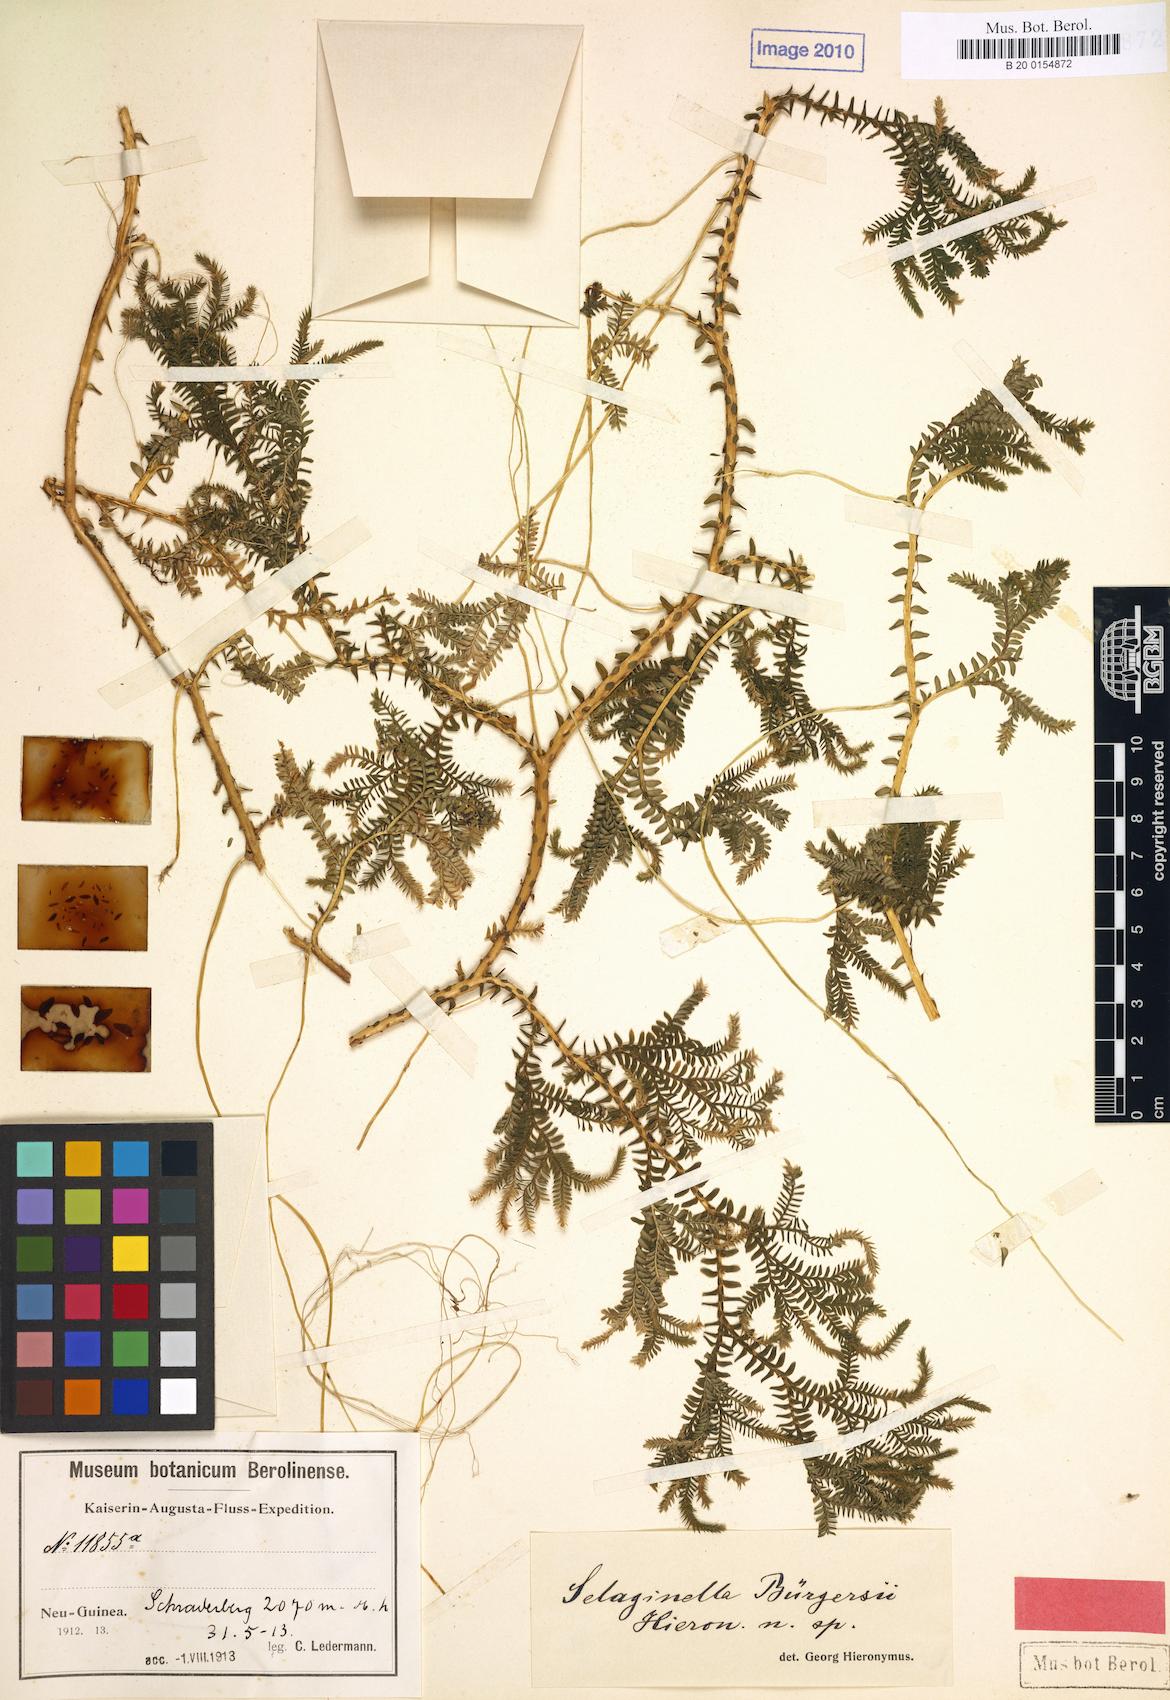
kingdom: Plantae
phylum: Tracheophyta
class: Lycopodiopsida
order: Selaginellales
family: Selaginellaceae
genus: Selaginella
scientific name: Selaginella buergersiana
